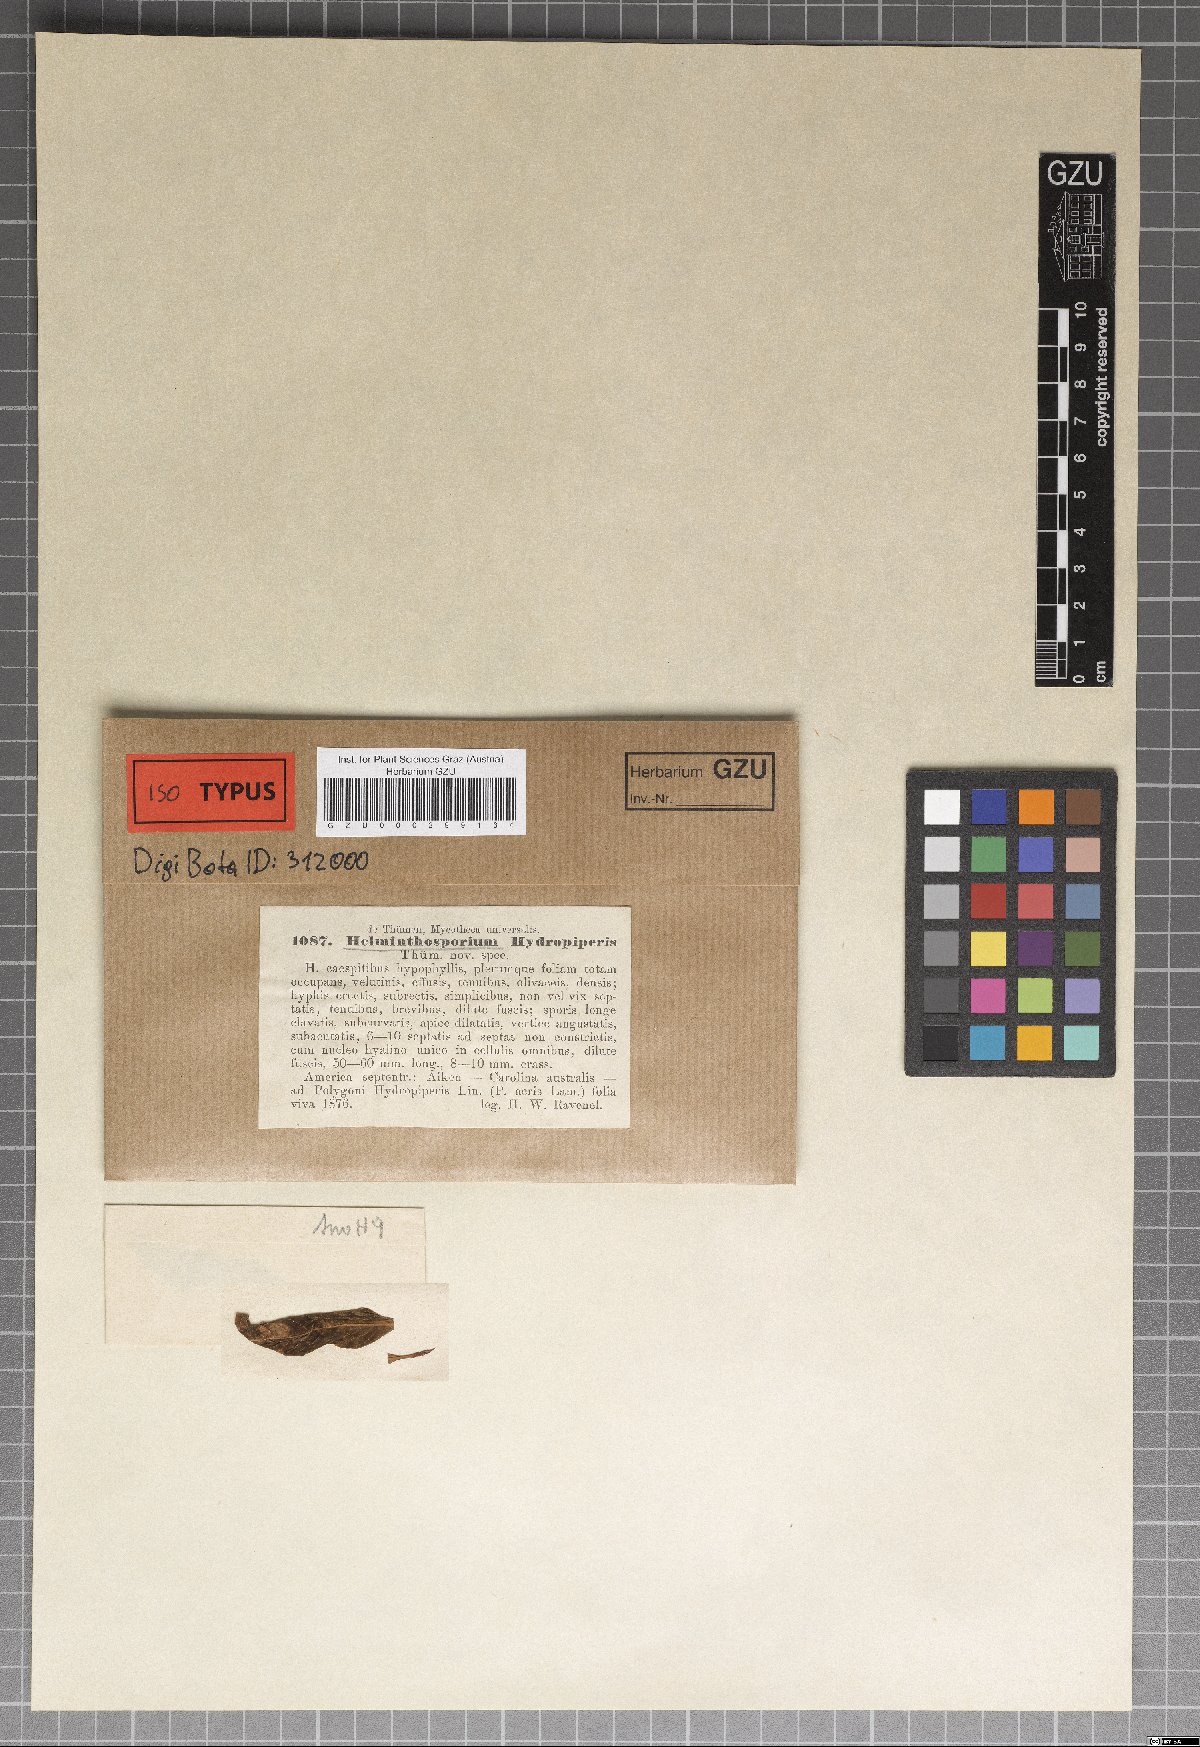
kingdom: Fungi
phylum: Ascomycota
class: Dothideomycetes
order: Pleosporales
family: Massarinaceae
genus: Helminthosporium
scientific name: Helminthosporium
